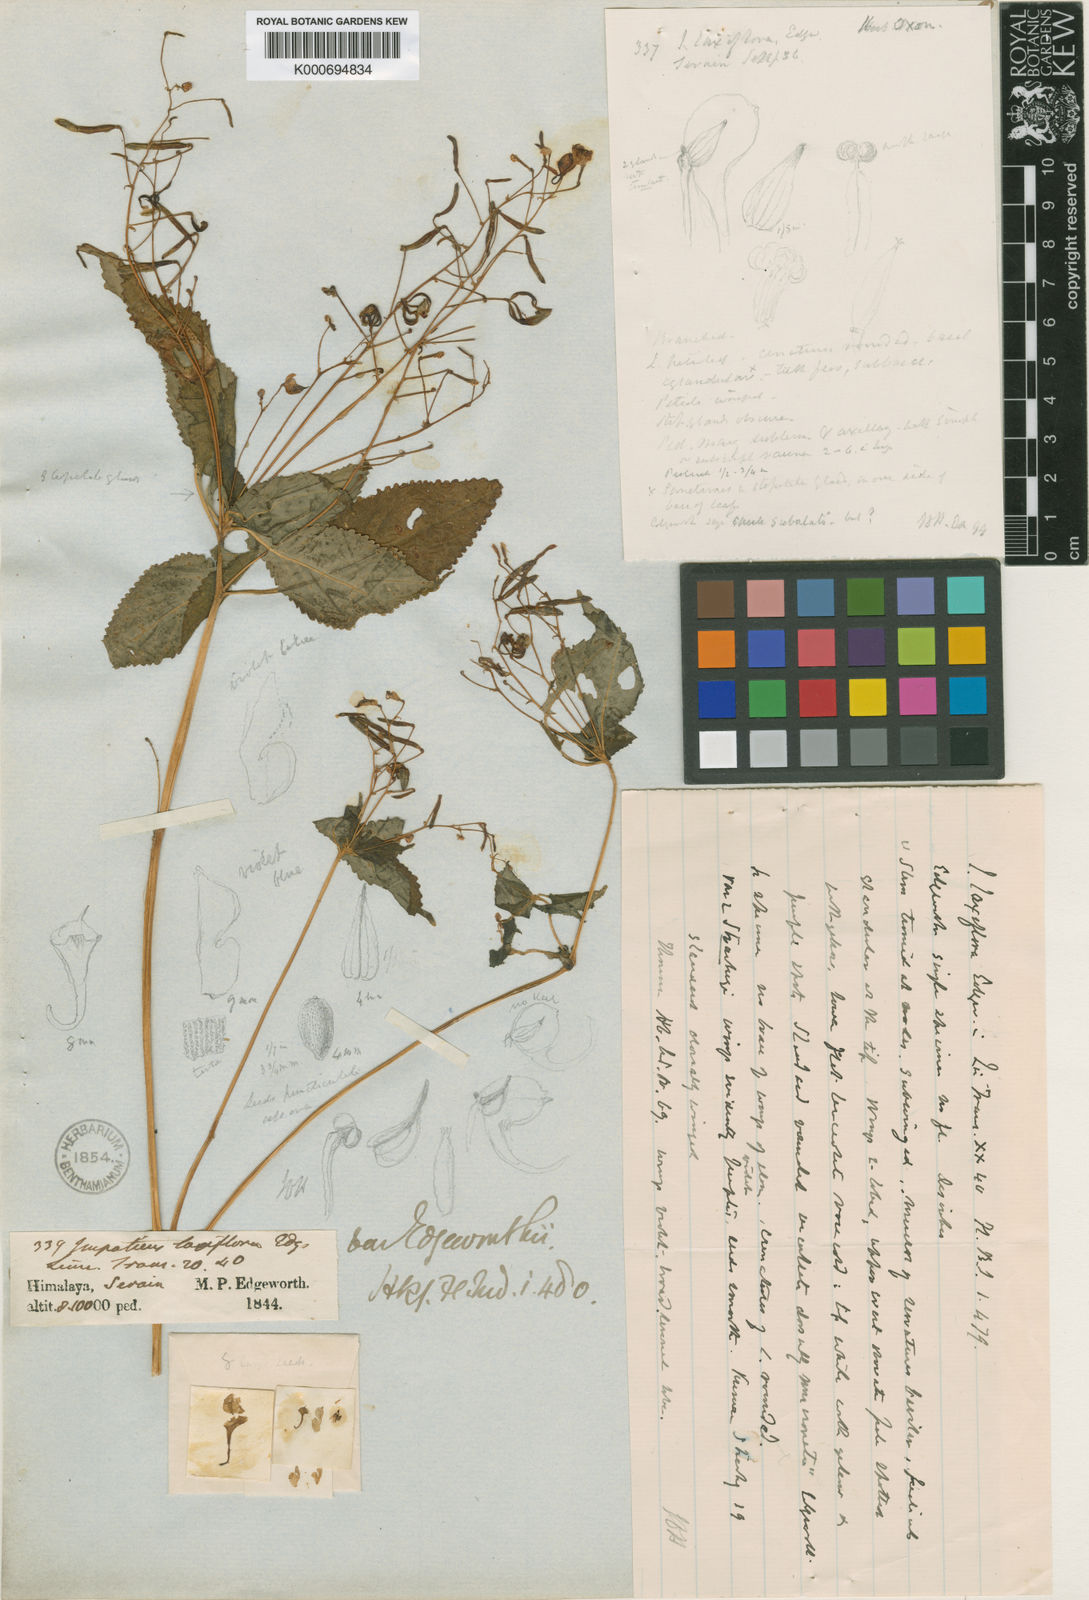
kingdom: Plantae
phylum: Tracheophyta
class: Magnoliopsida
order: Ericales
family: Balsaminaceae
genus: Impatiens
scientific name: Impatiens laxiflora
